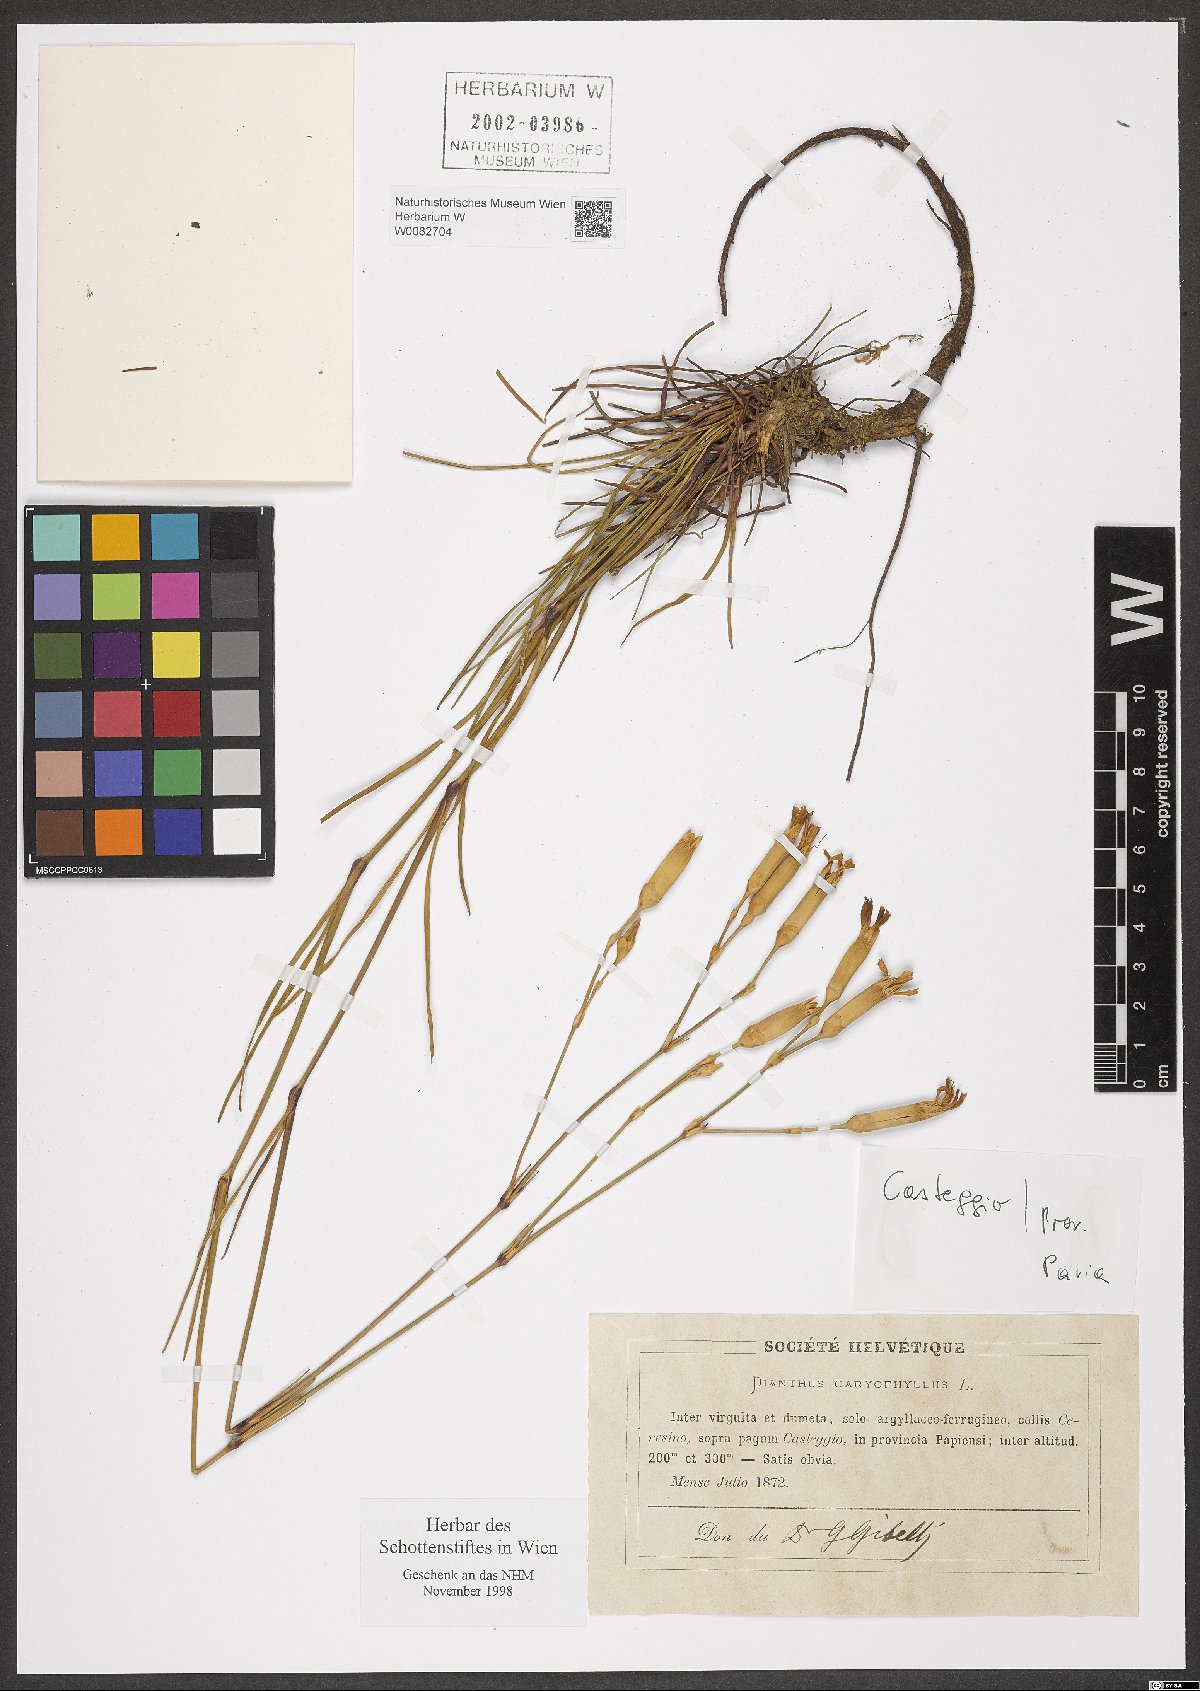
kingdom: Plantae
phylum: Tracheophyta
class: Magnoliopsida
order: Caryophyllales
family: Caryophyllaceae
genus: Dianthus
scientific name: Dianthus caryophyllus
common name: Clove pink
